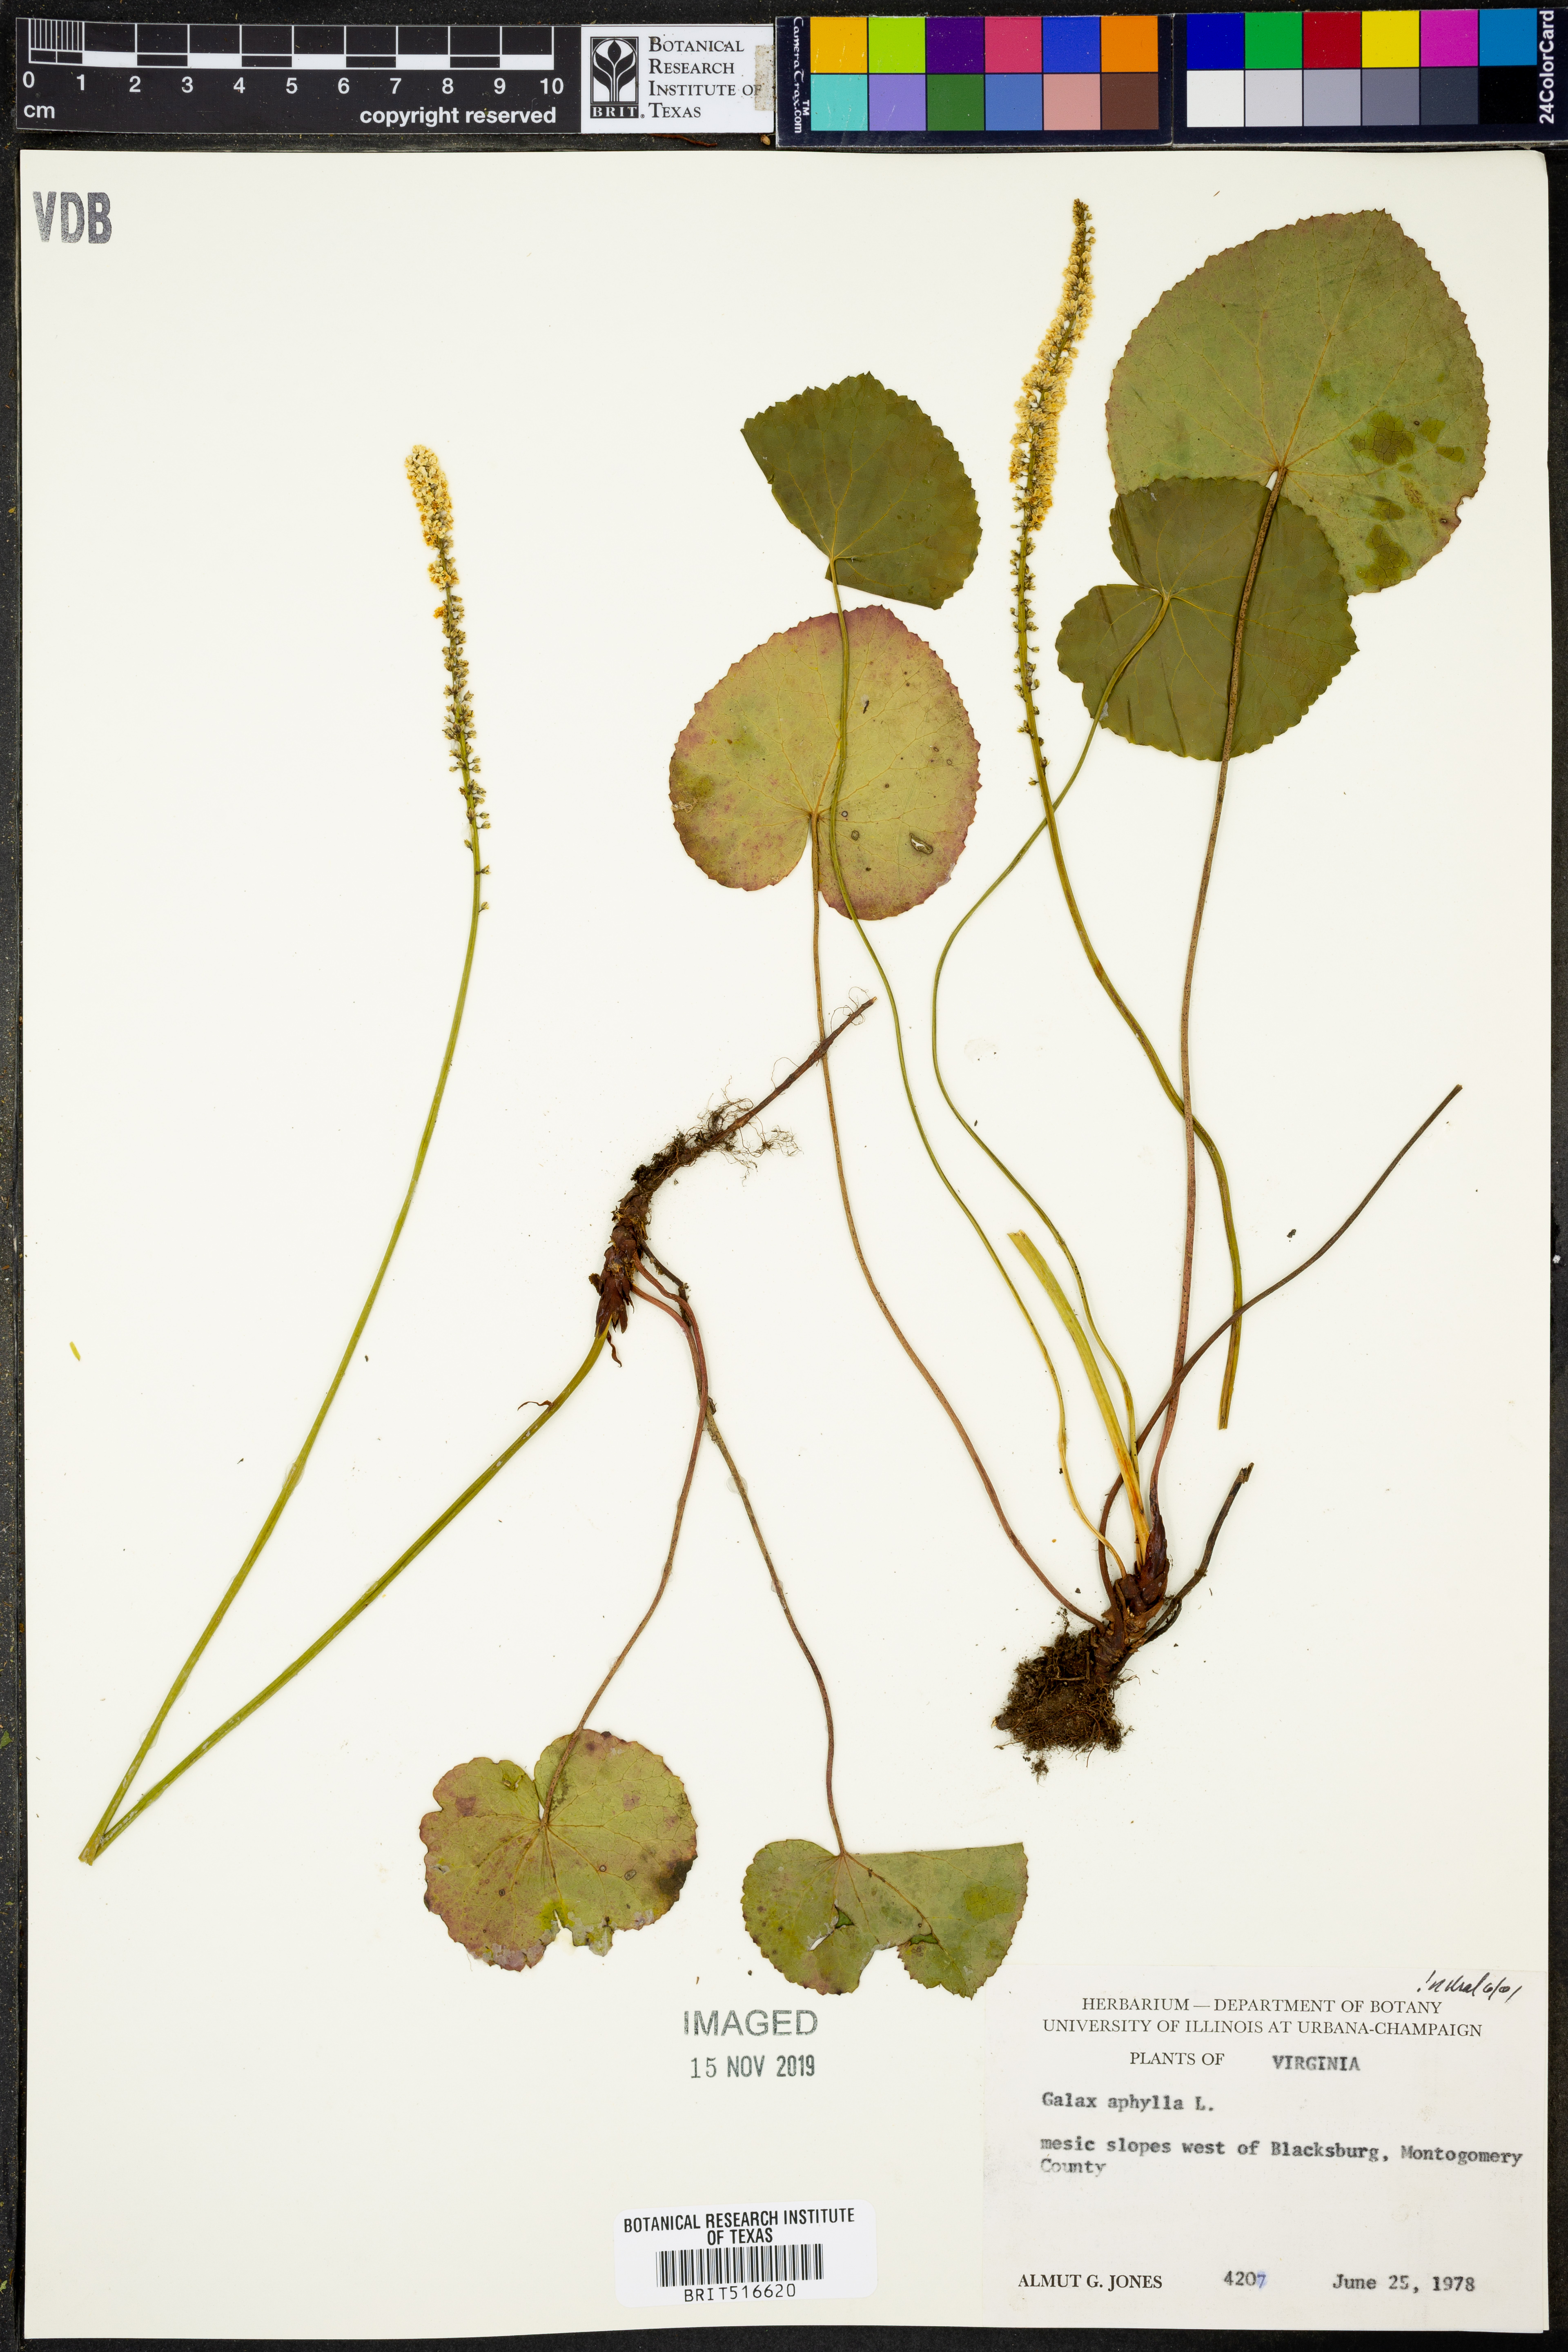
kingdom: Plantae
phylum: Tracheophyta
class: Magnoliopsida
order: Boraginales
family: Hydrophyllaceae
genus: Nemophila
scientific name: Nemophila aphylla
